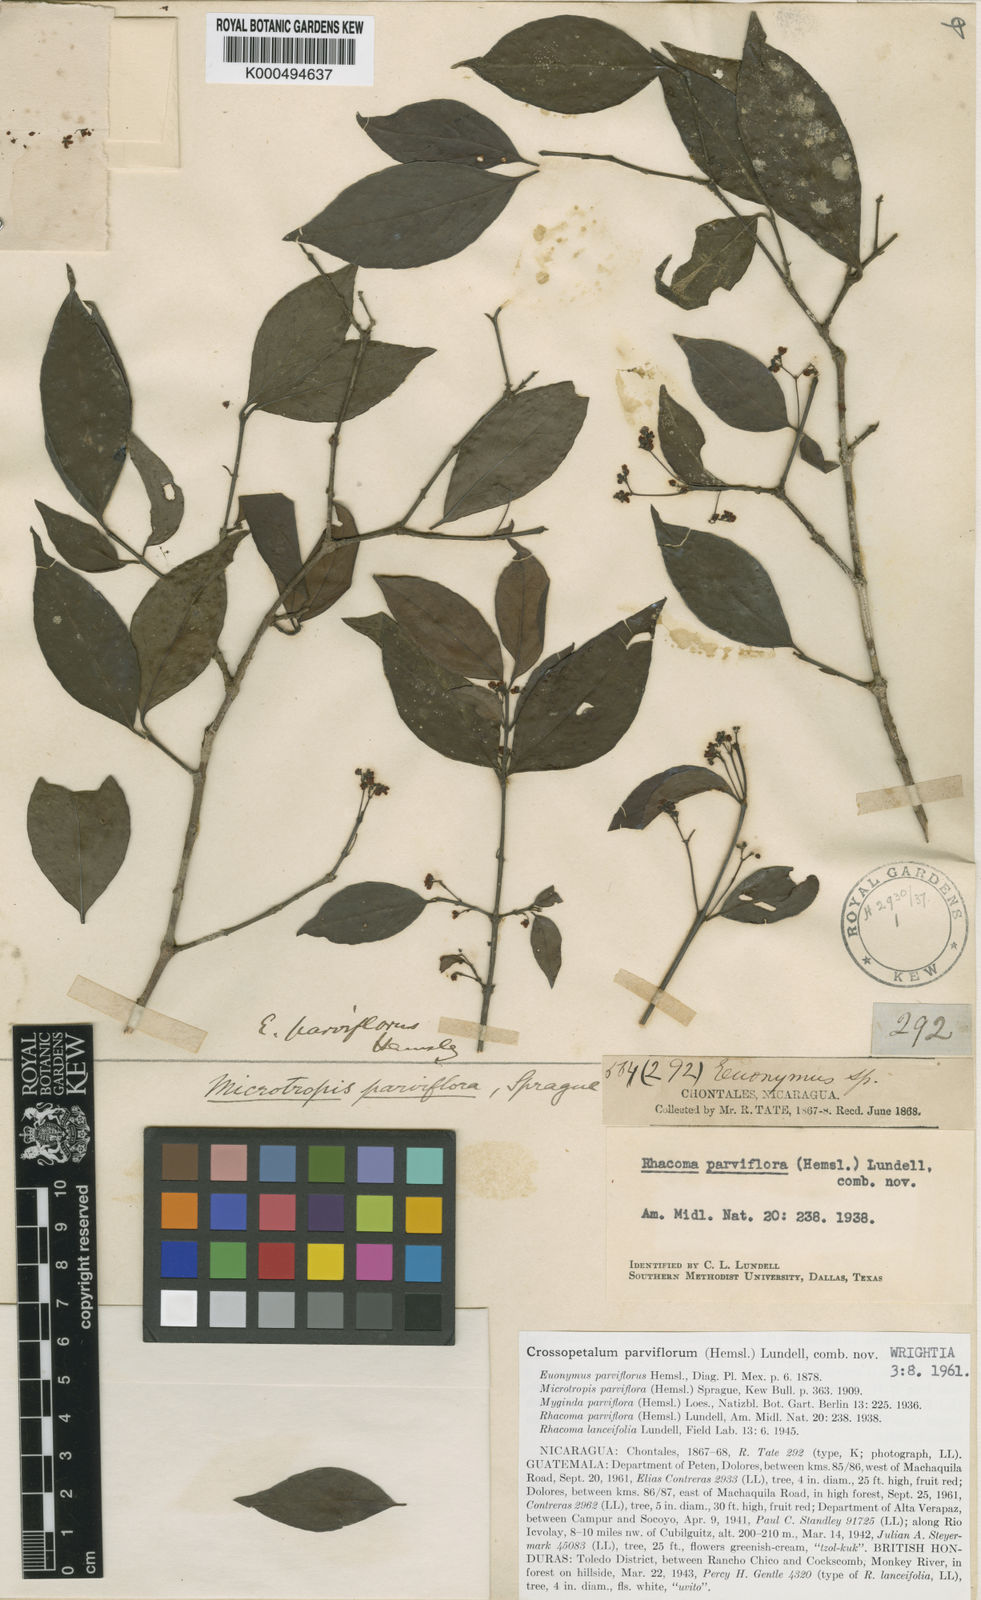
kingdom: Plantae
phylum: Tracheophyta
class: Magnoliopsida
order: Celastrales
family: Celastraceae
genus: Crossopetalum
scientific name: Crossopetalum parviflorum
